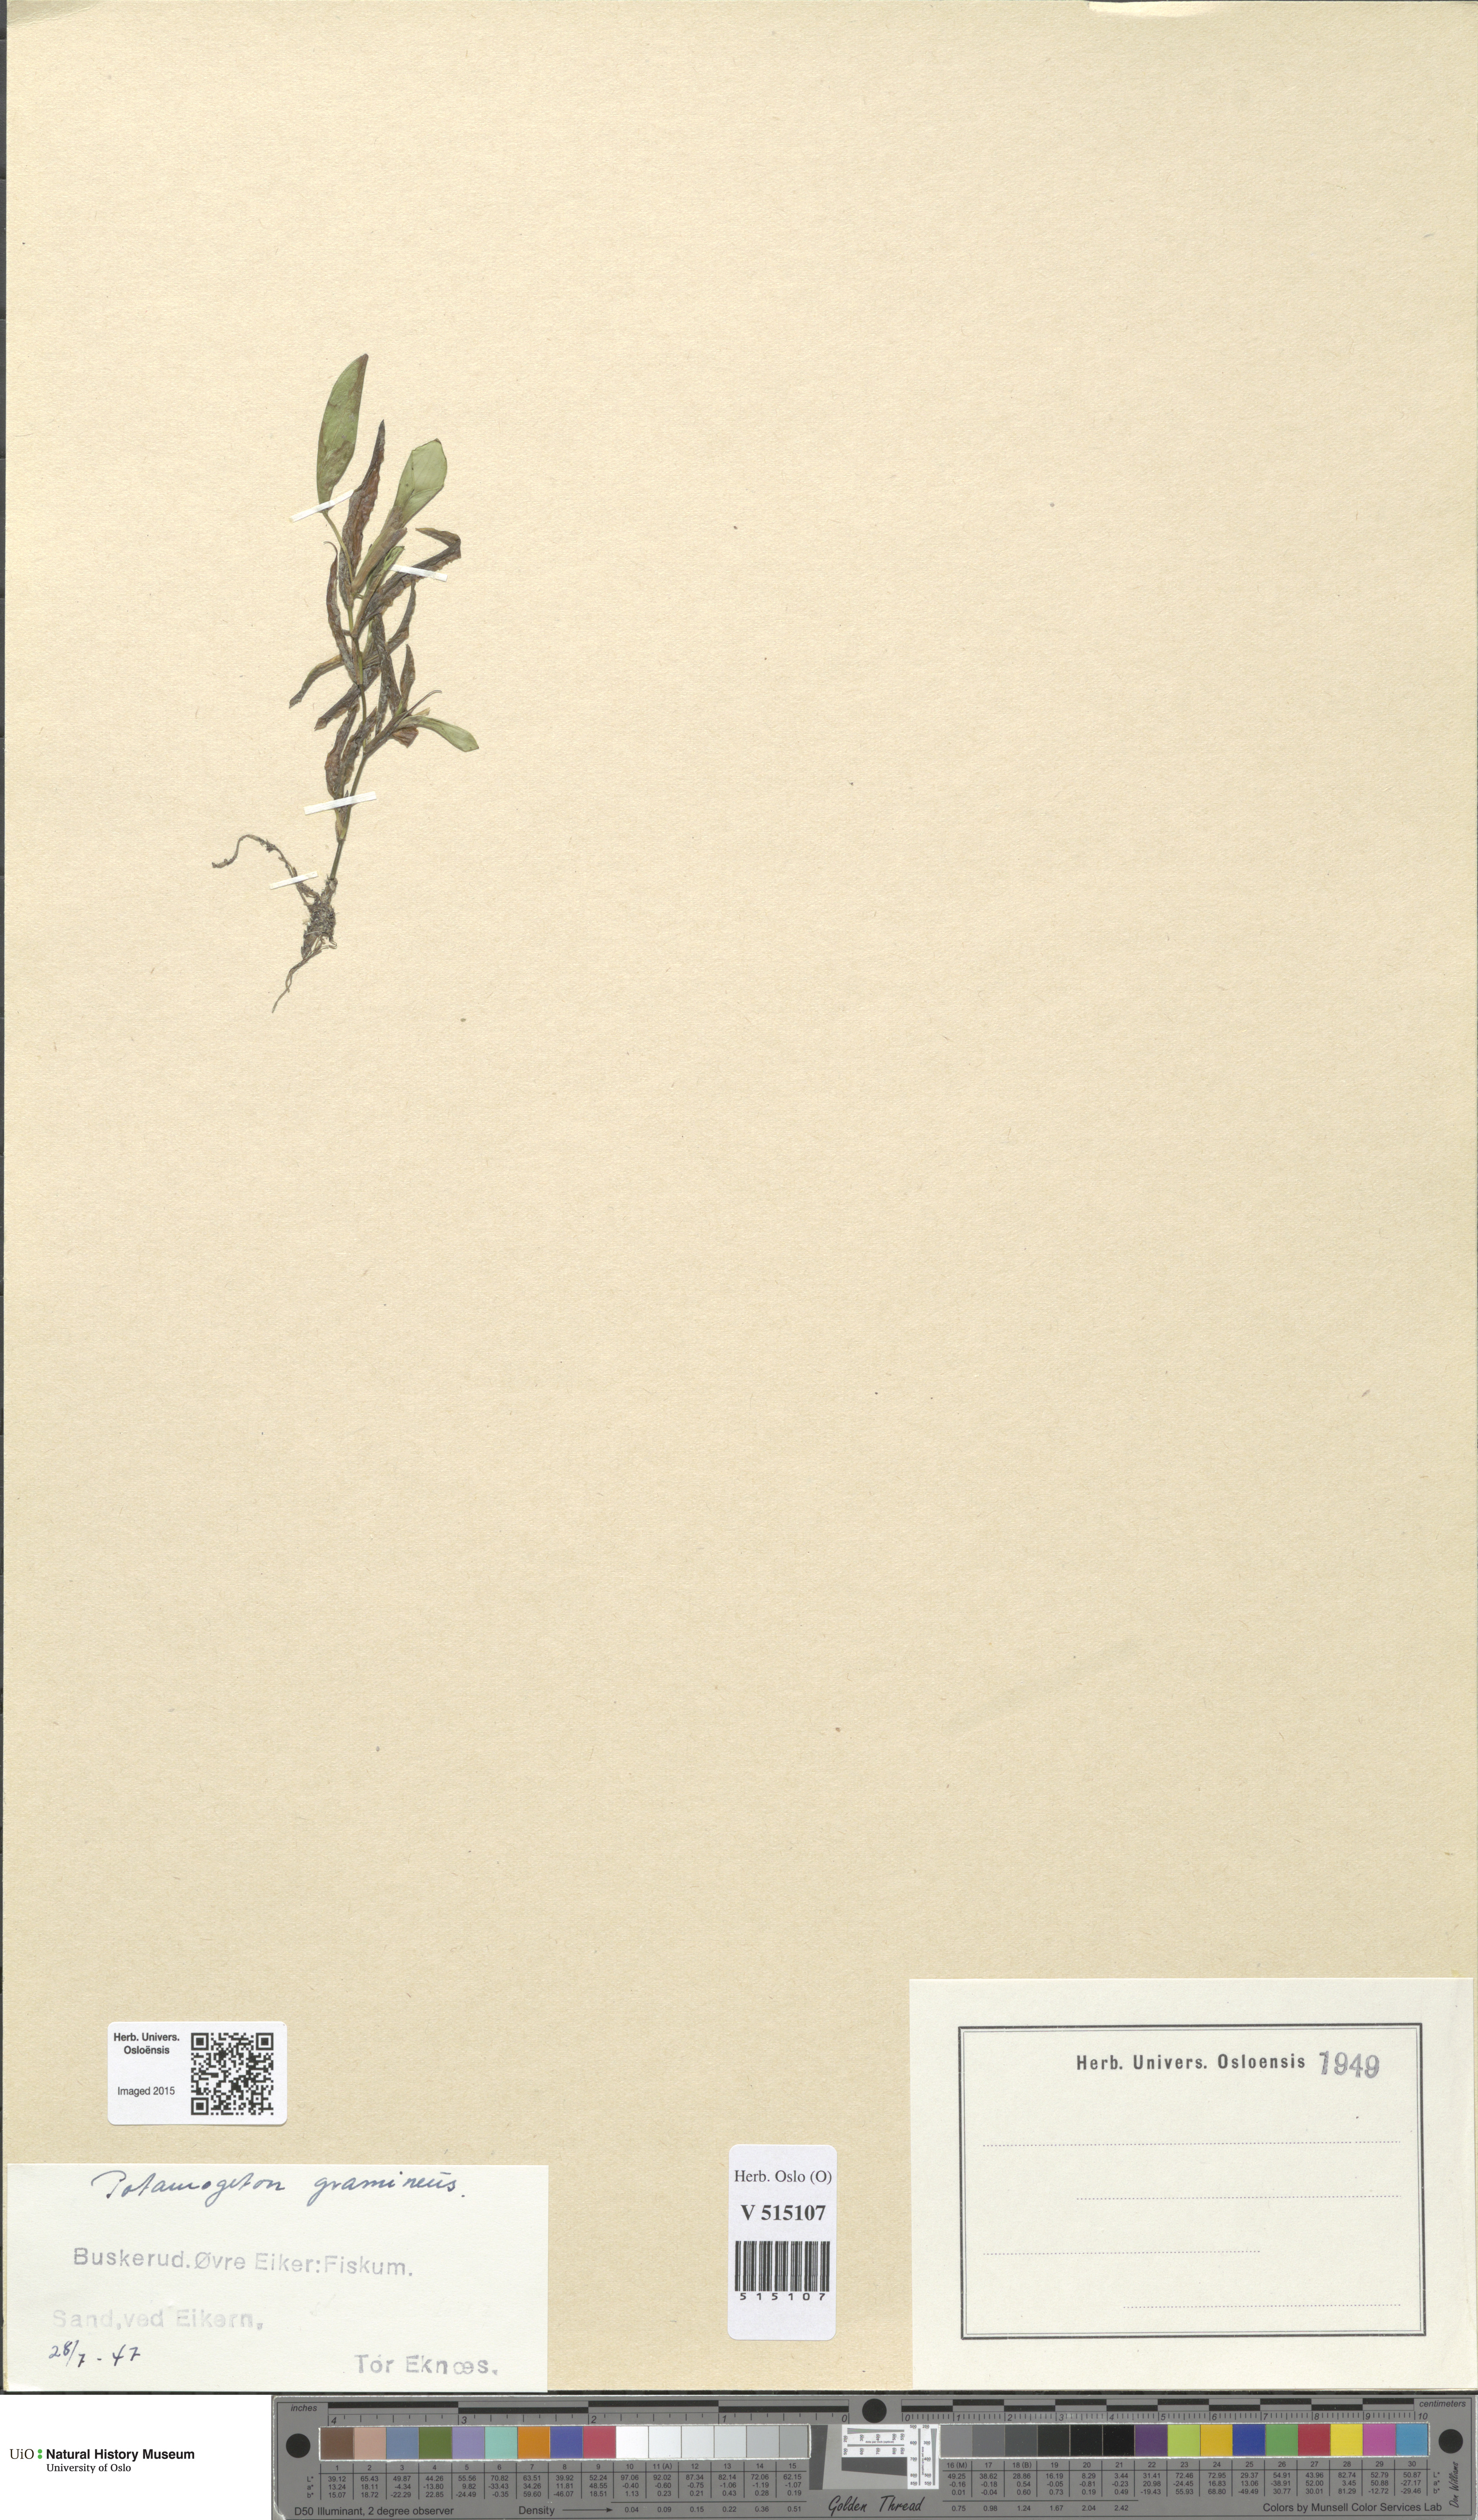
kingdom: Plantae
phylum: Tracheophyta
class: Liliopsida
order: Alismatales
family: Potamogetonaceae
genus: Potamogeton
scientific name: Potamogeton gramineus
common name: Various-leaved pondweed
